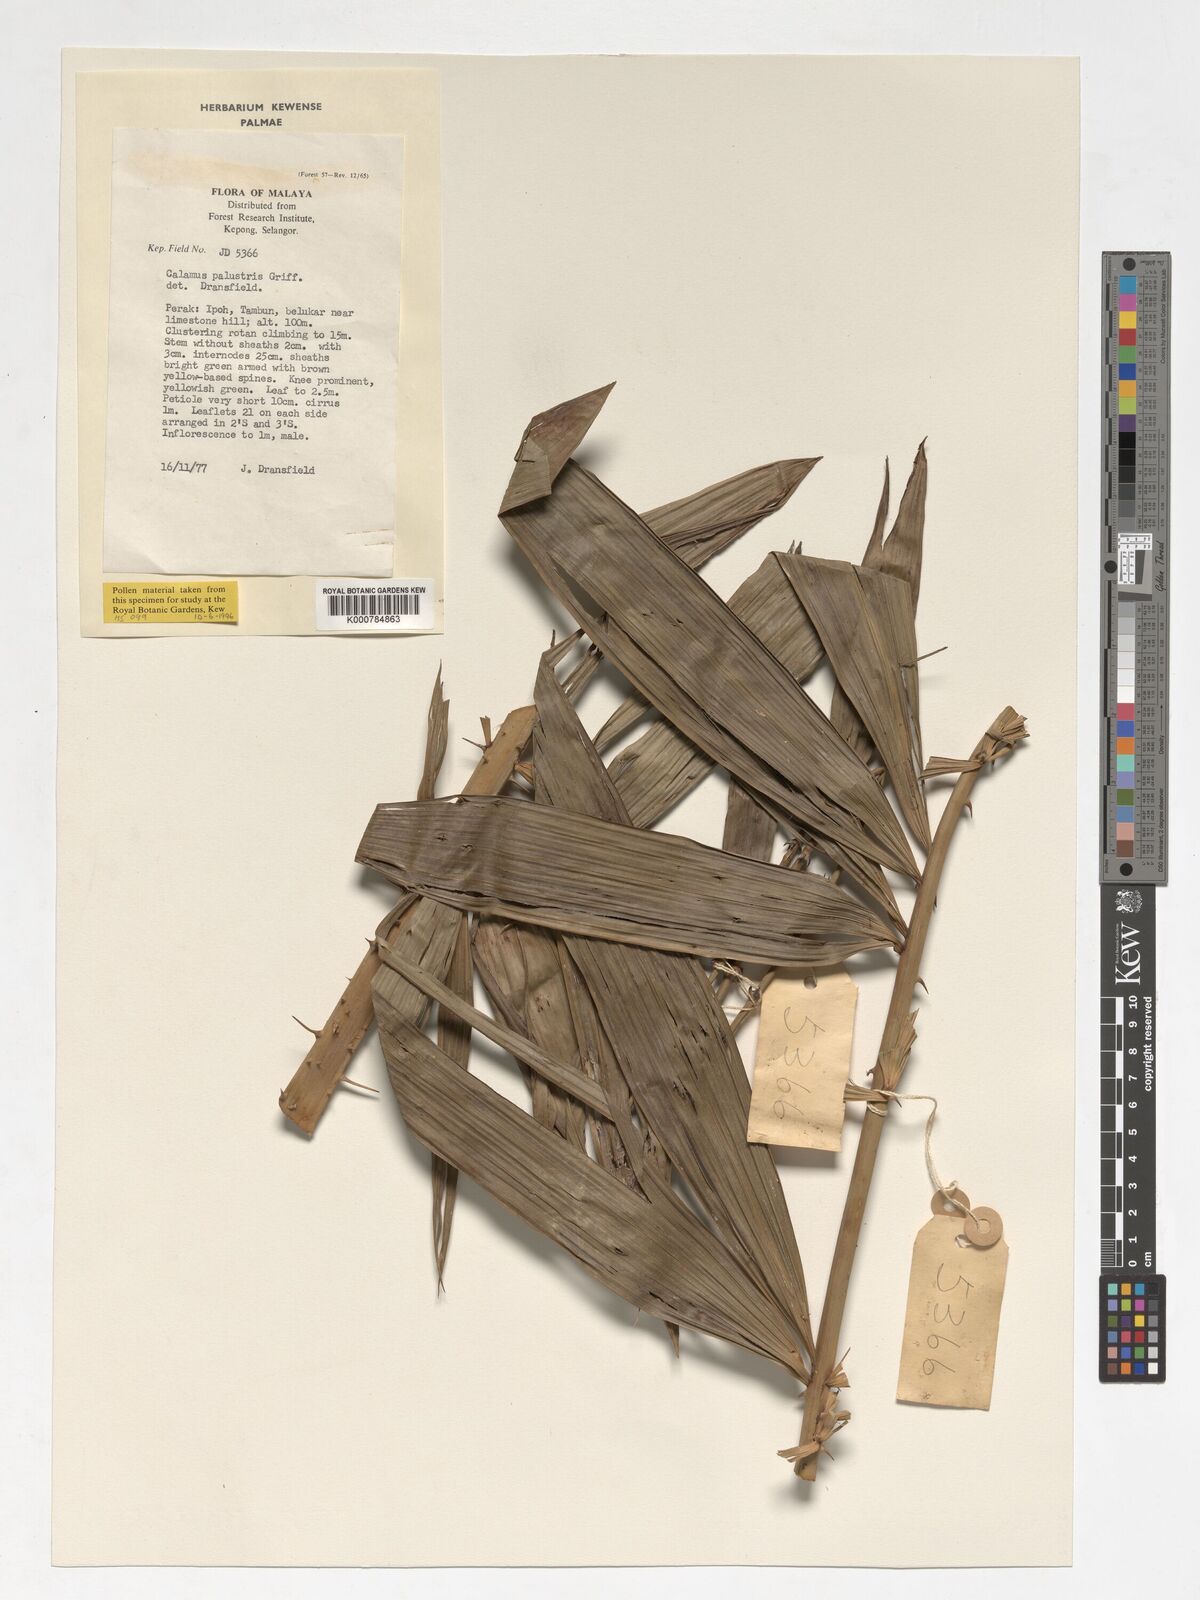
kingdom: Plantae
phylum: Tracheophyta
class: Liliopsida
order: Arecales
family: Arecaceae
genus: Calamus
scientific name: Calamus latifolius
